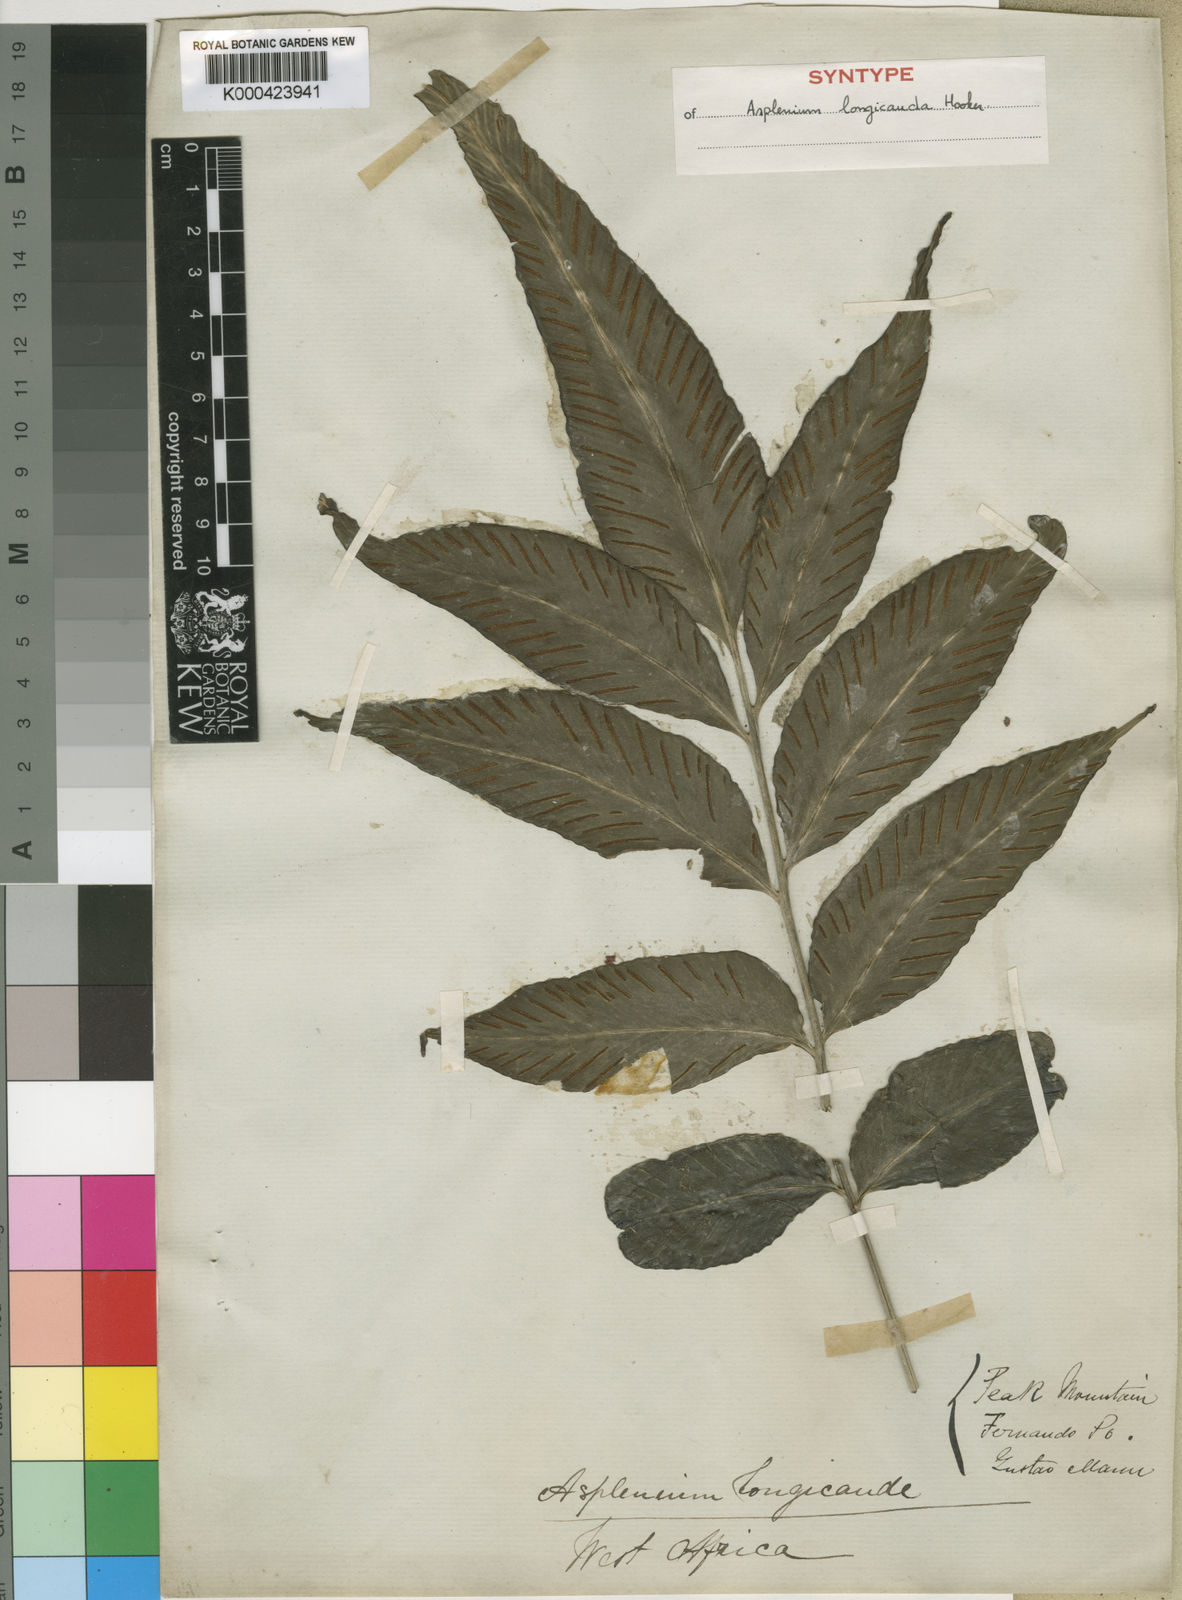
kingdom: Plantae
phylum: Tracheophyta
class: Polypodiopsida
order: Polypodiales
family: Aspleniaceae
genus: Asplenium
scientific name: Asplenium longicauda
